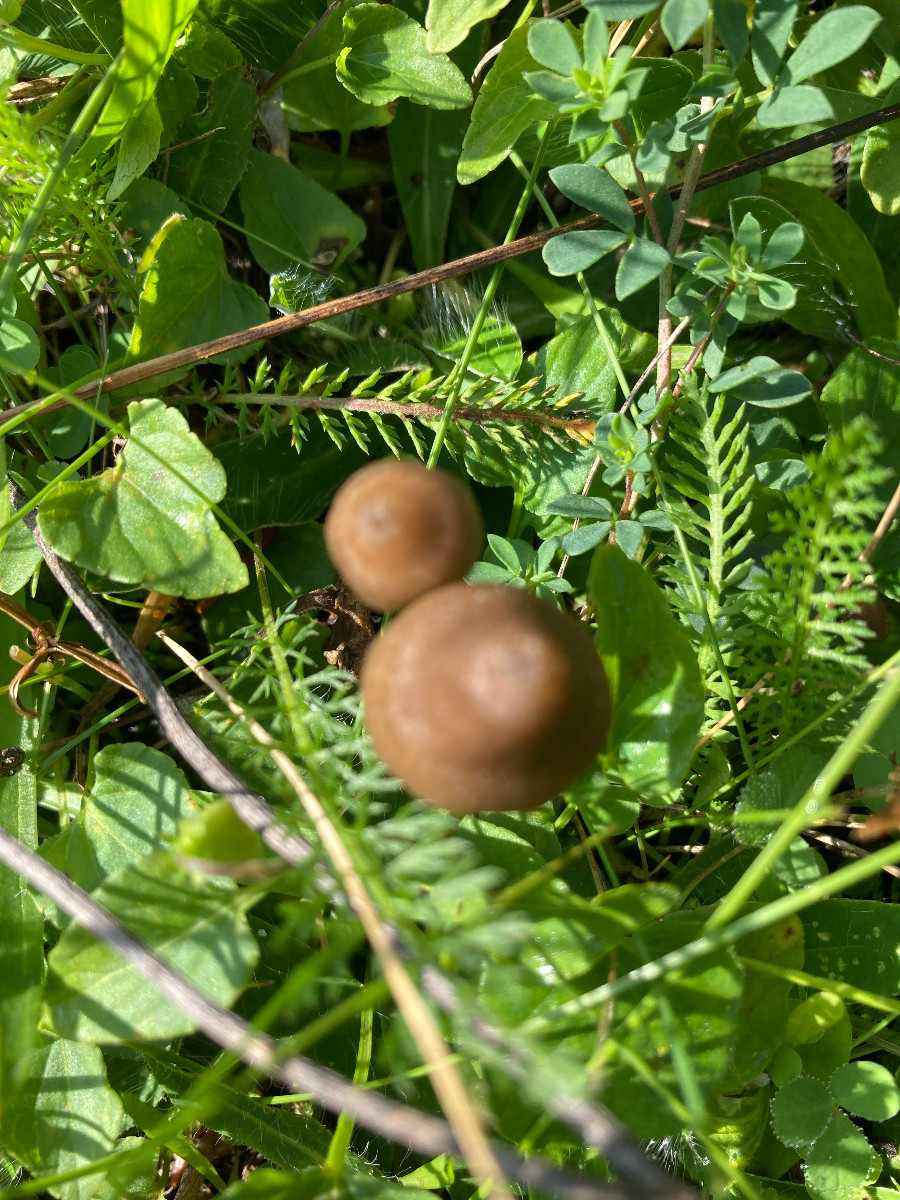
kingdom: Fungi
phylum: Basidiomycota
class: Agaricomycetes
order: Agaricales
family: Entolomataceae
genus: Entoloma
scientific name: Entoloma
